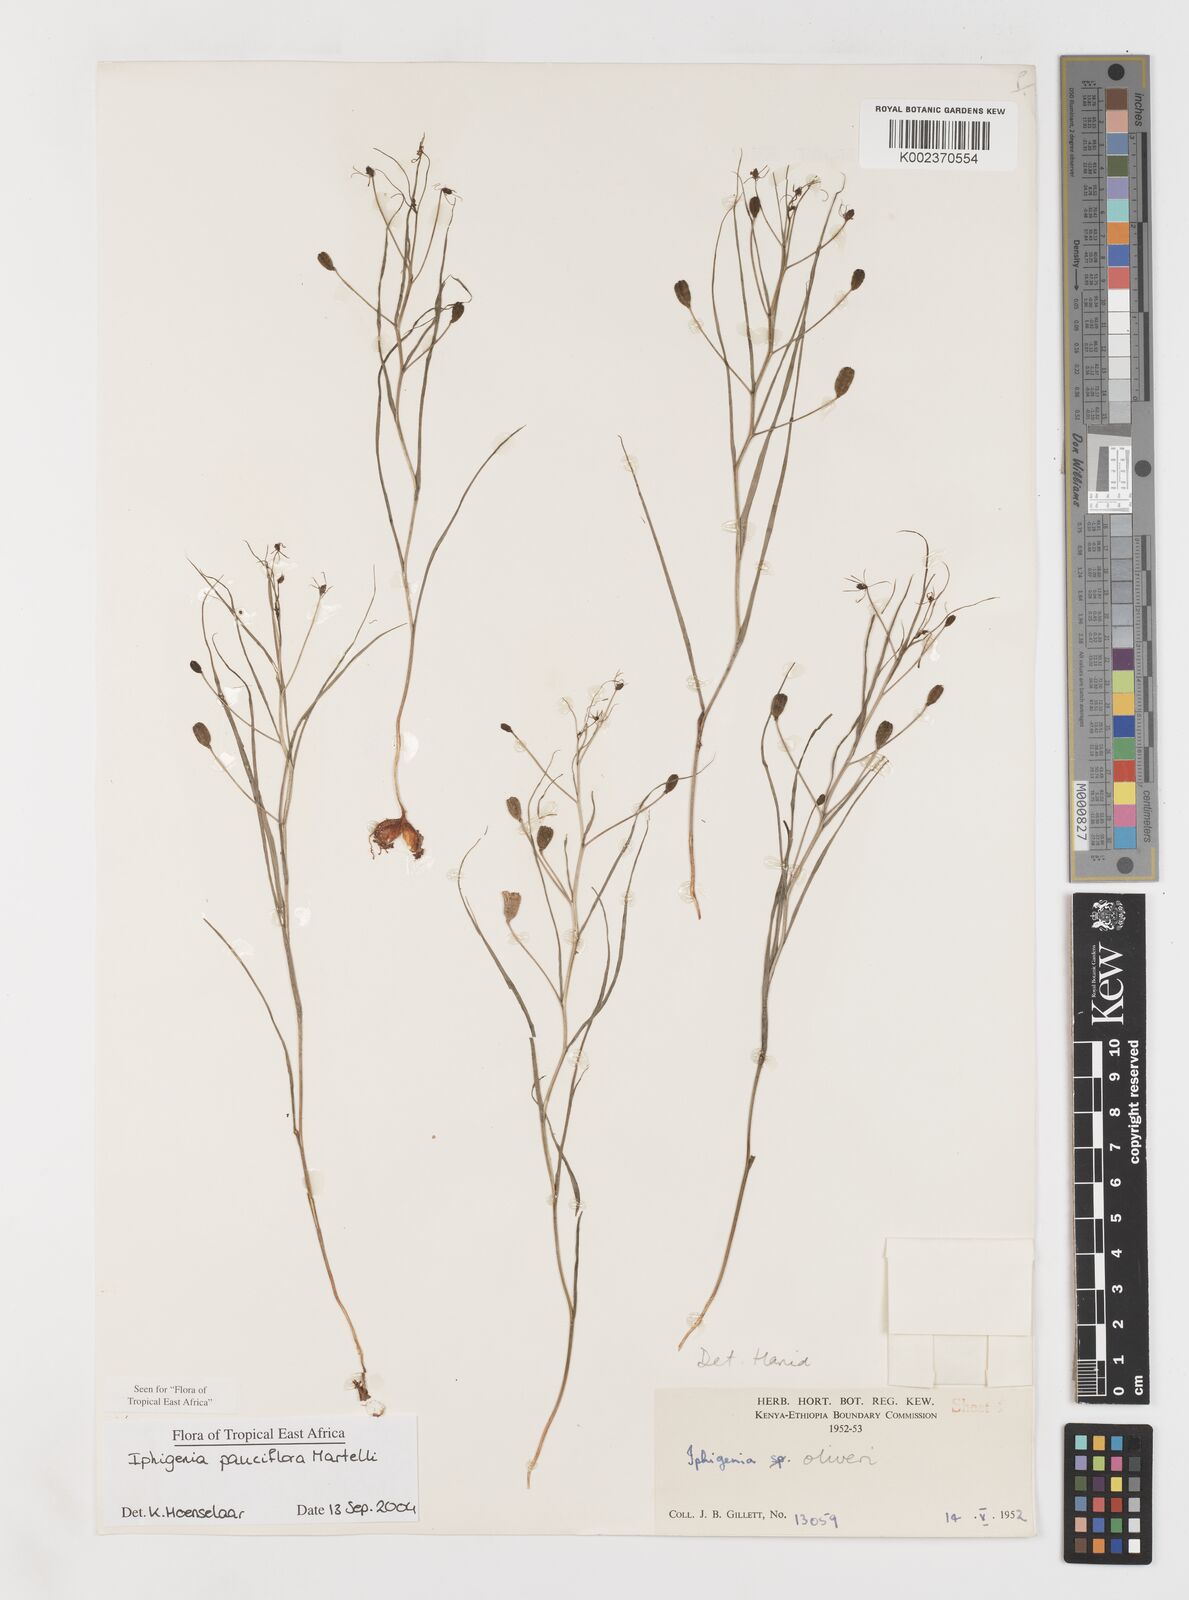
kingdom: Plantae
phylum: Tracheophyta
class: Liliopsida
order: Liliales
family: Colchicaceae
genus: Iphigenia
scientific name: Iphigenia pauciflora
